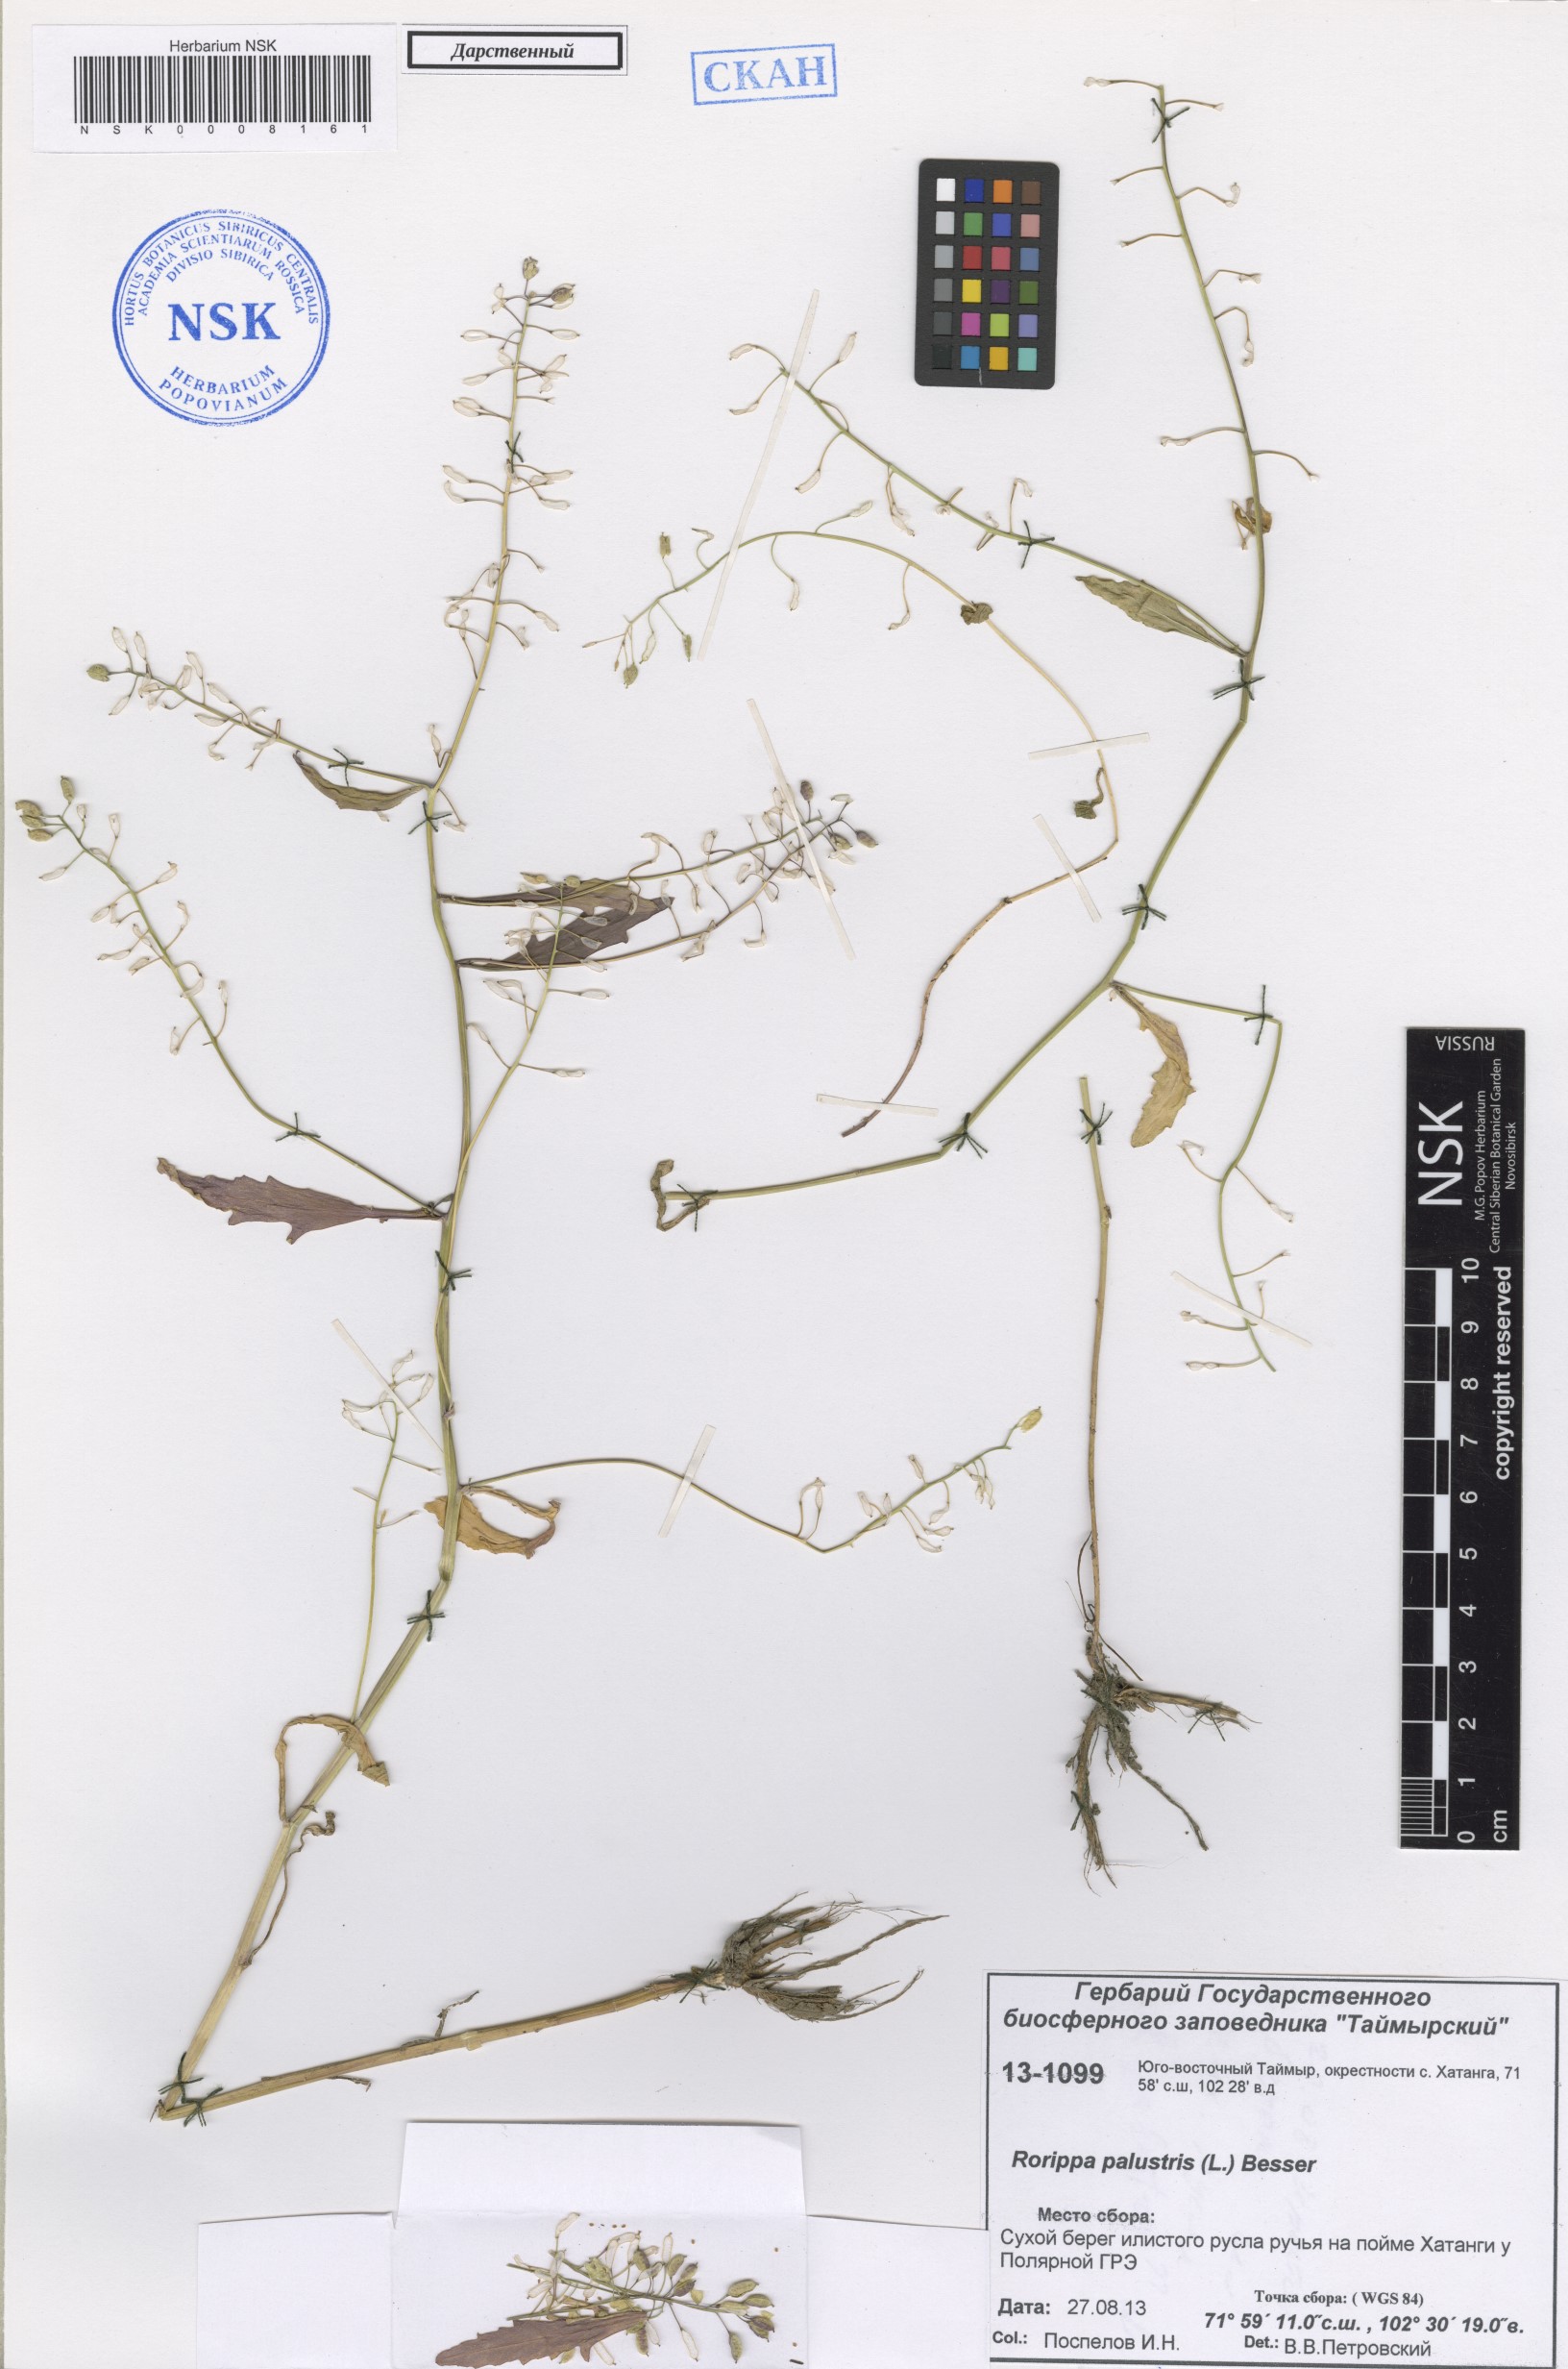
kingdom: Plantae
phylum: Tracheophyta
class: Magnoliopsida
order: Brassicales
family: Brassicaceae
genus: Rorippa
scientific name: Rorippa palustris
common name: Marsh yellow-cress
